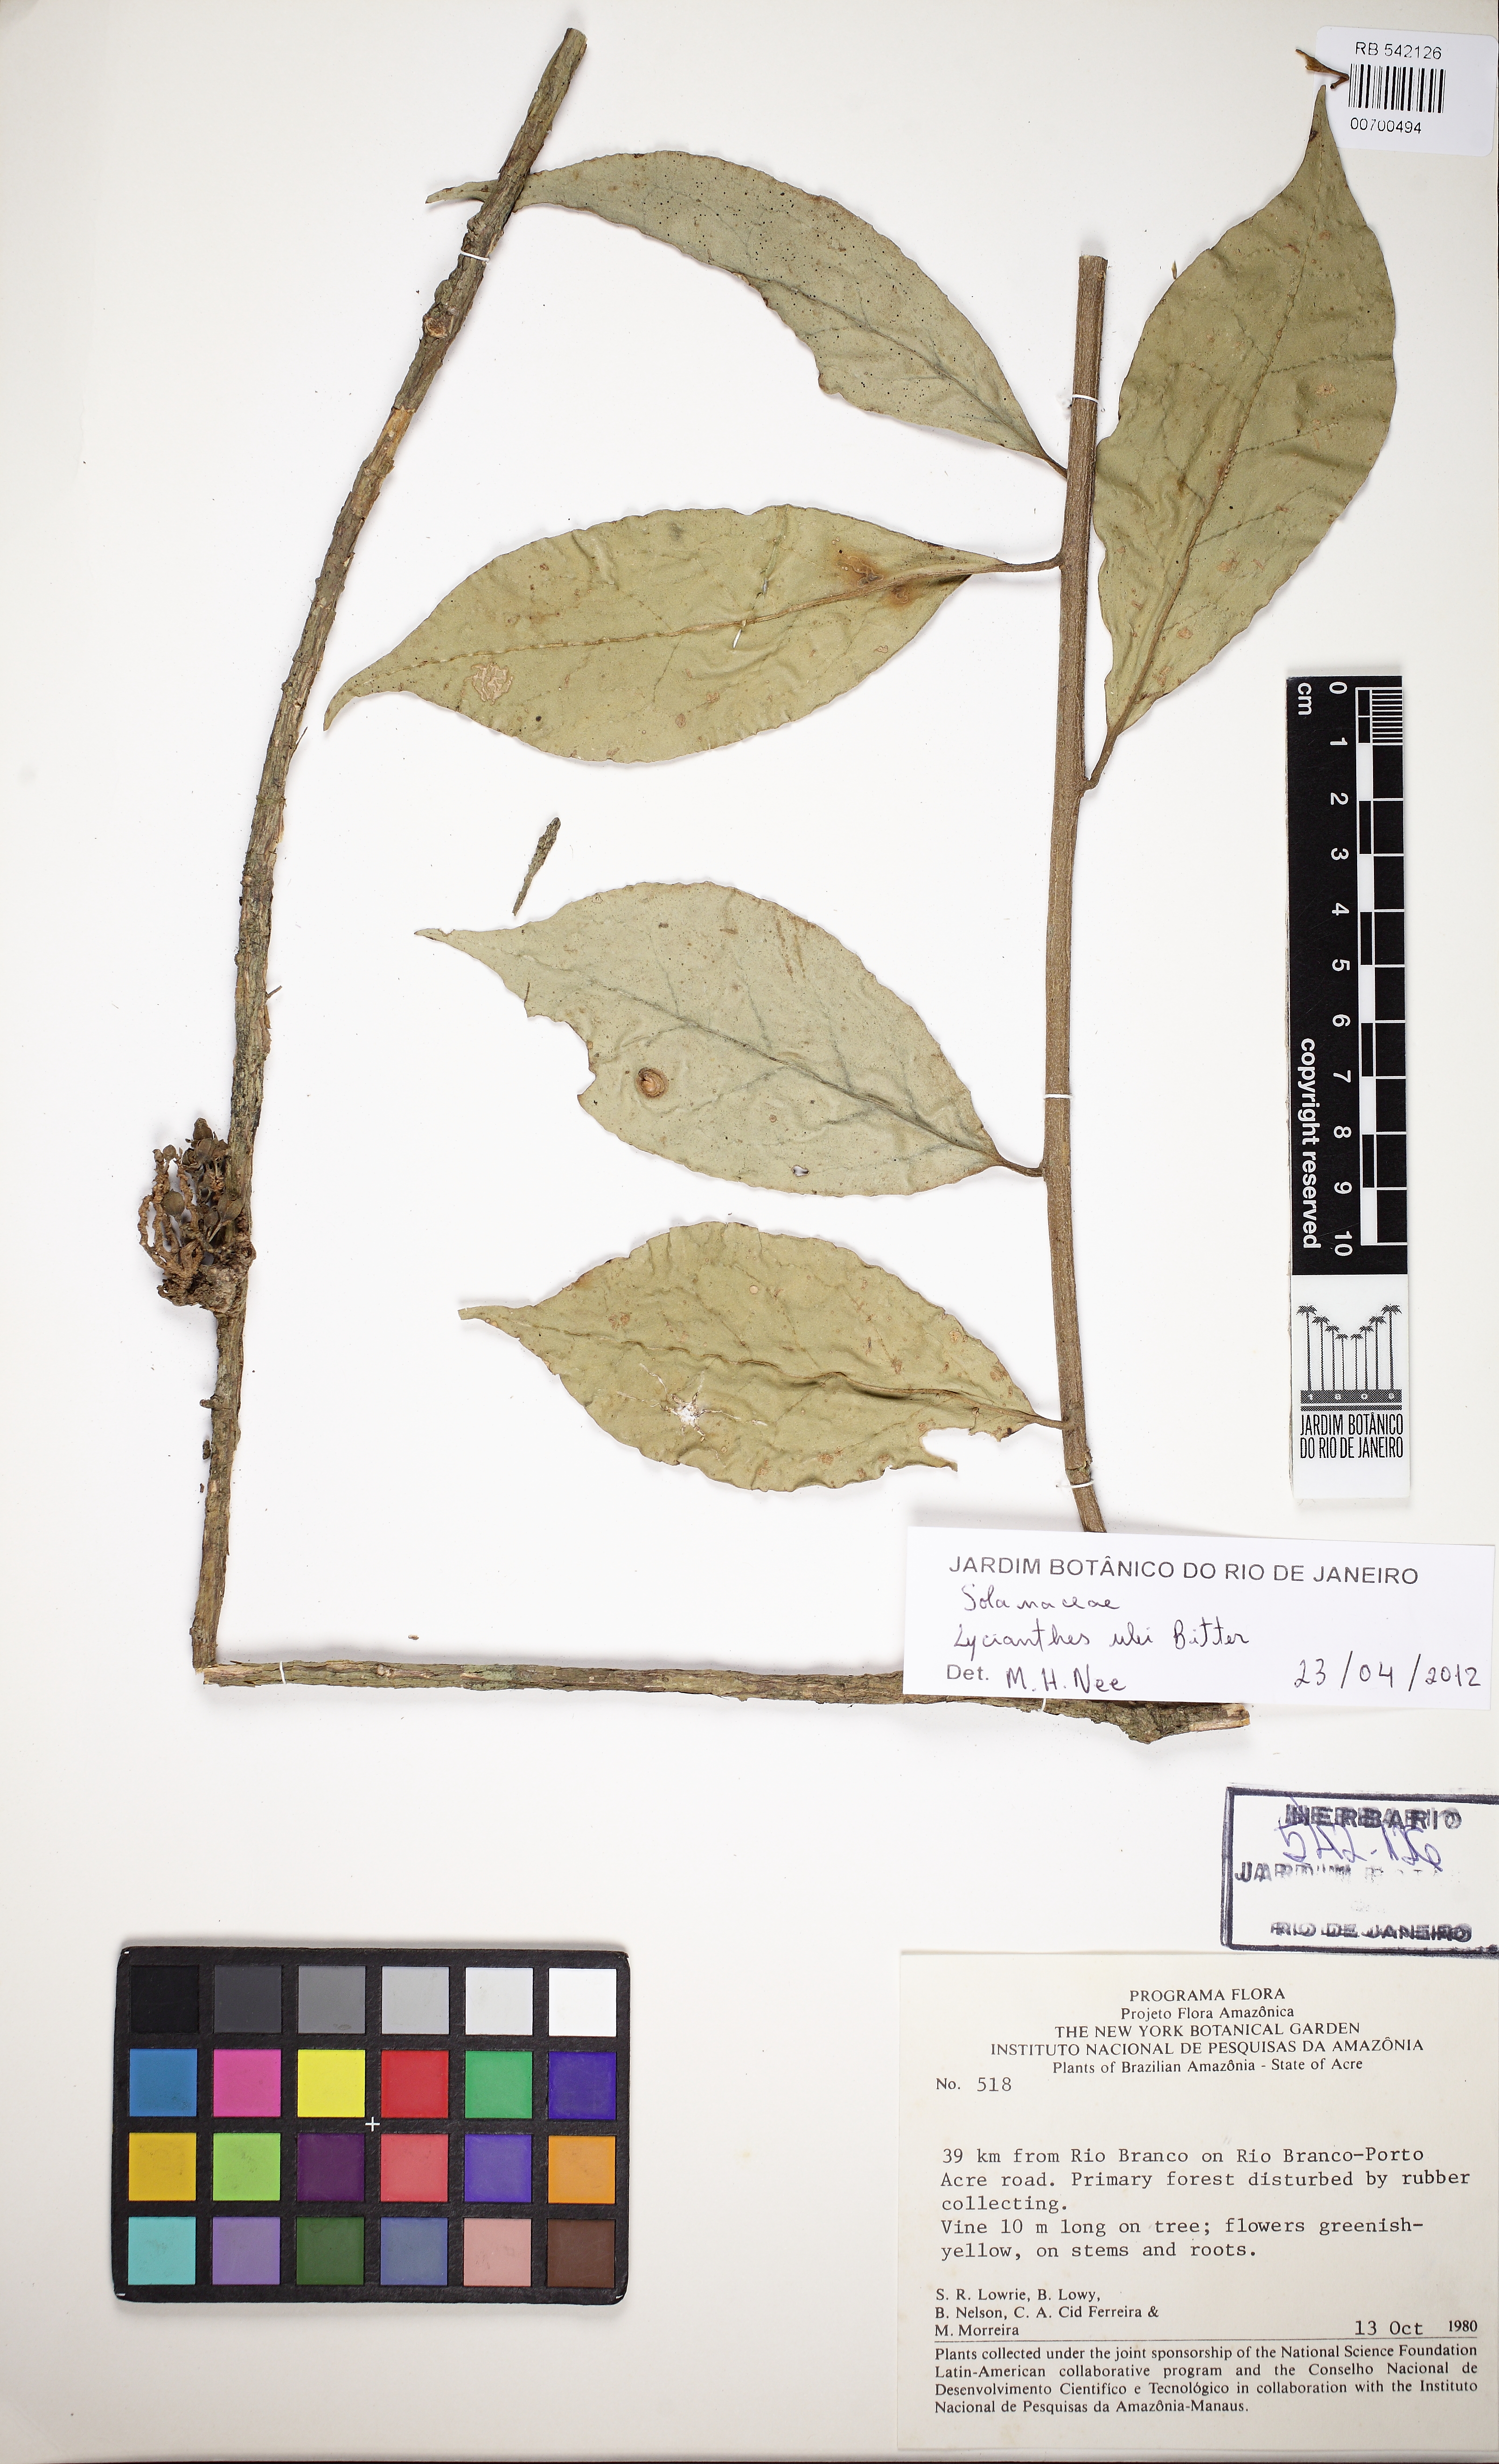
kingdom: Plantae
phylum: Tracheophyta
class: Magnoliopsida
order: Solanales
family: Solanaceae
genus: Hawkesiophyton
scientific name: Hawkesiophyton ulei
